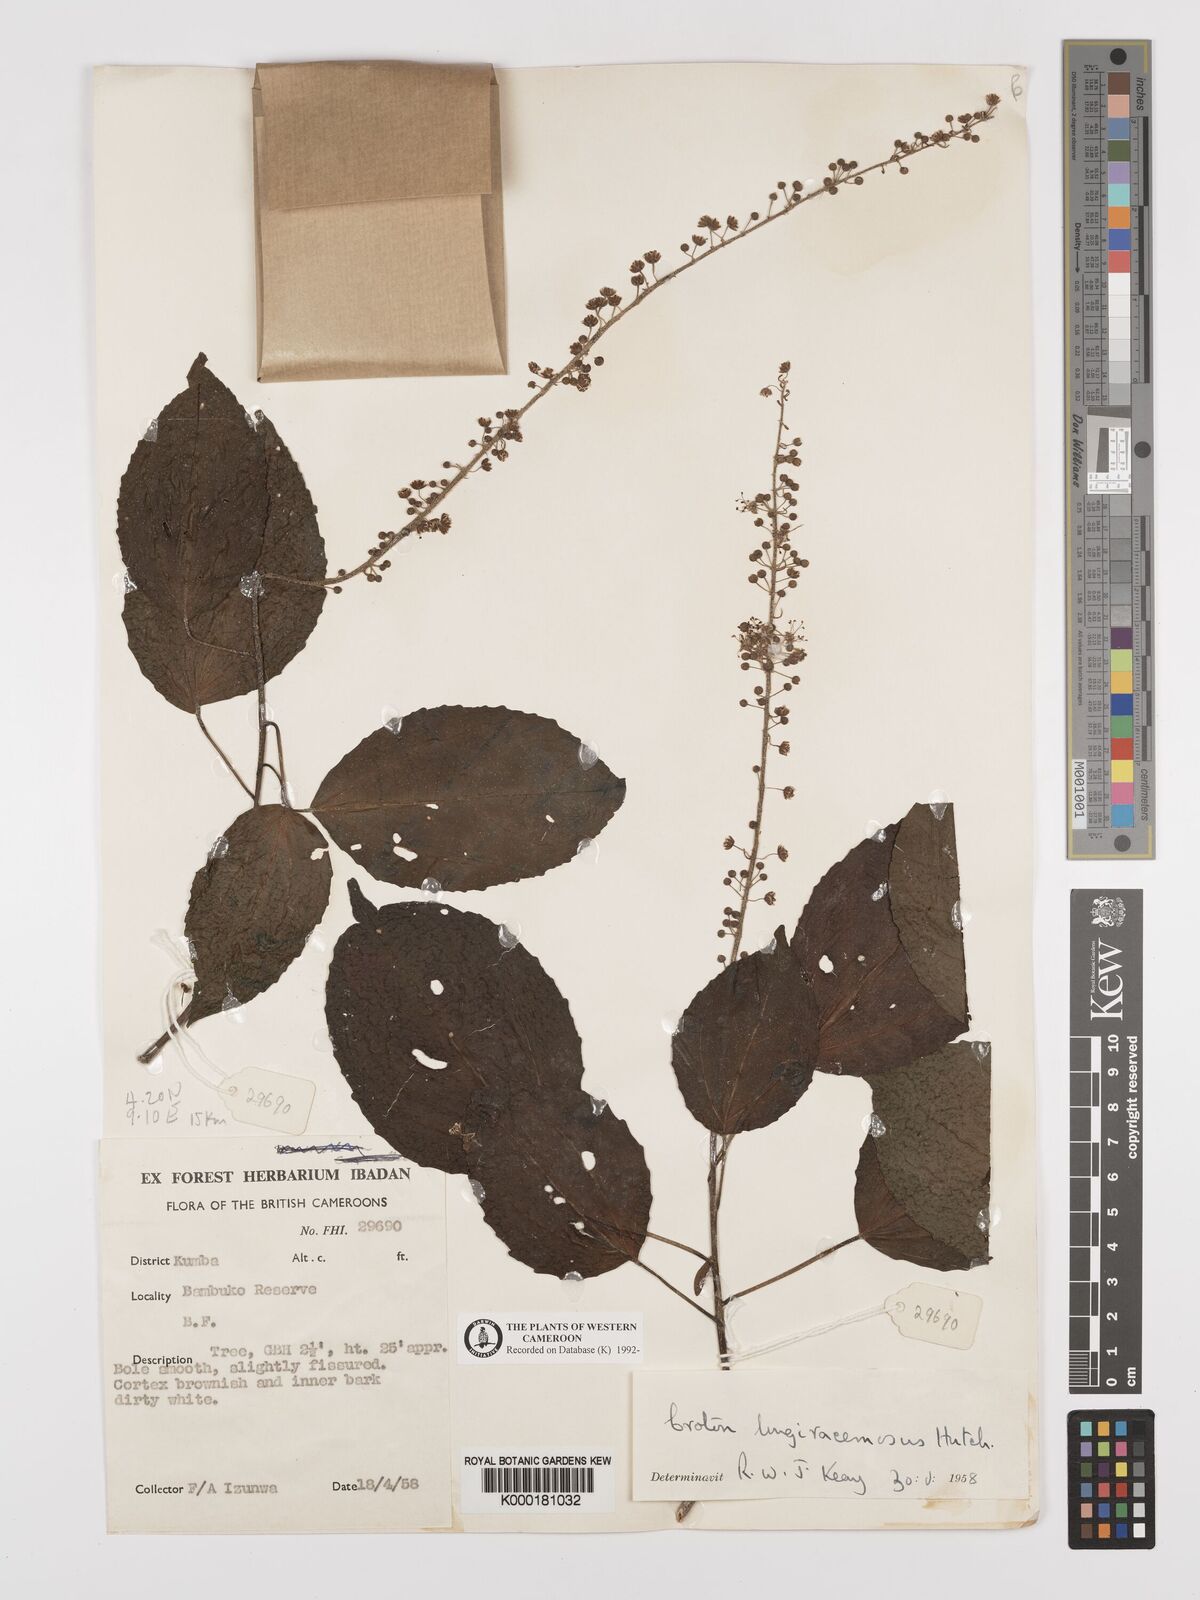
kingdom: Plantae
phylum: Tracheophyta
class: Magnoliopsida
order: Malpighiales
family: Euphorbiaceae
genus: Croton
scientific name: Croton longiracemosus
